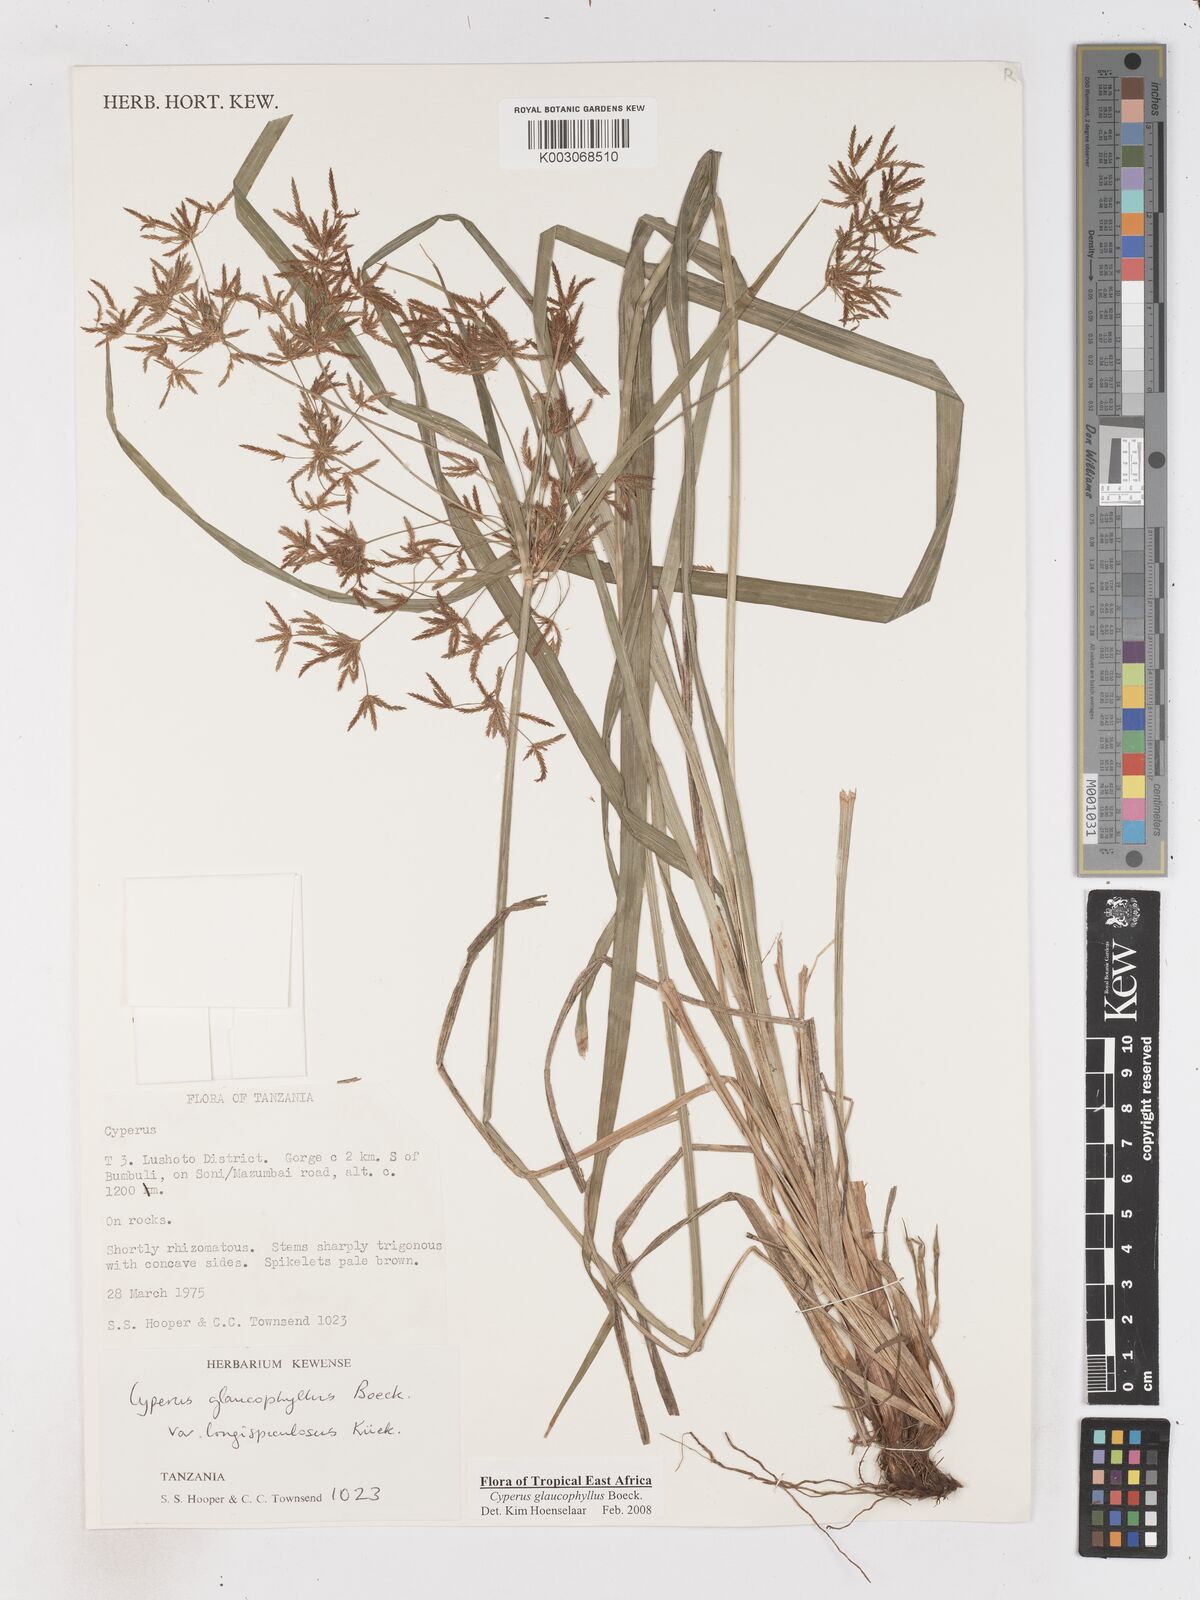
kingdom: Plantae
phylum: Tracheophyta
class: Liliopsida
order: Poales
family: Cyperaceae
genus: Cyperus
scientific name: Cyperus glaucophyllus
